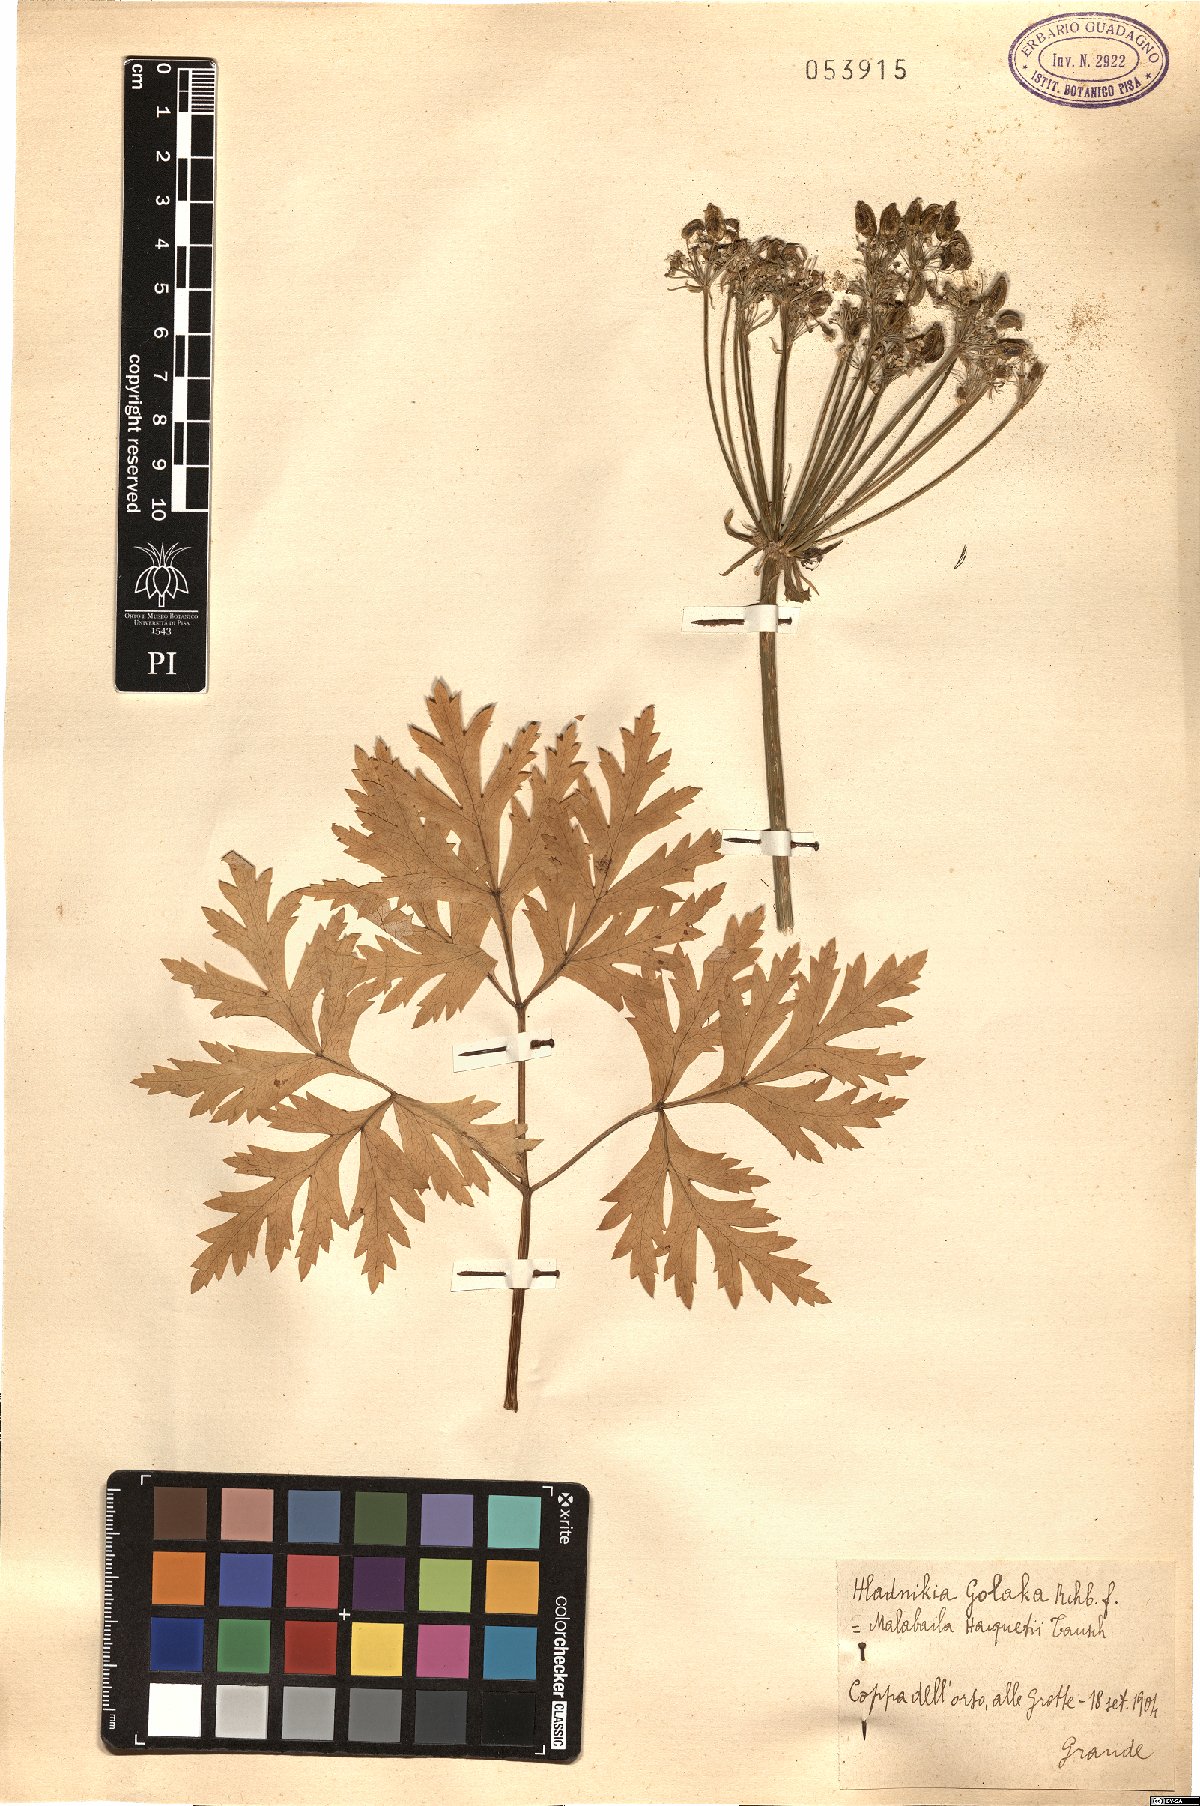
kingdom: Plantae
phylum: Tracheophyta
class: Magnoliopsida
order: Apiales
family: Apiaceae
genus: Grafia
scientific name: Grafia golaka
